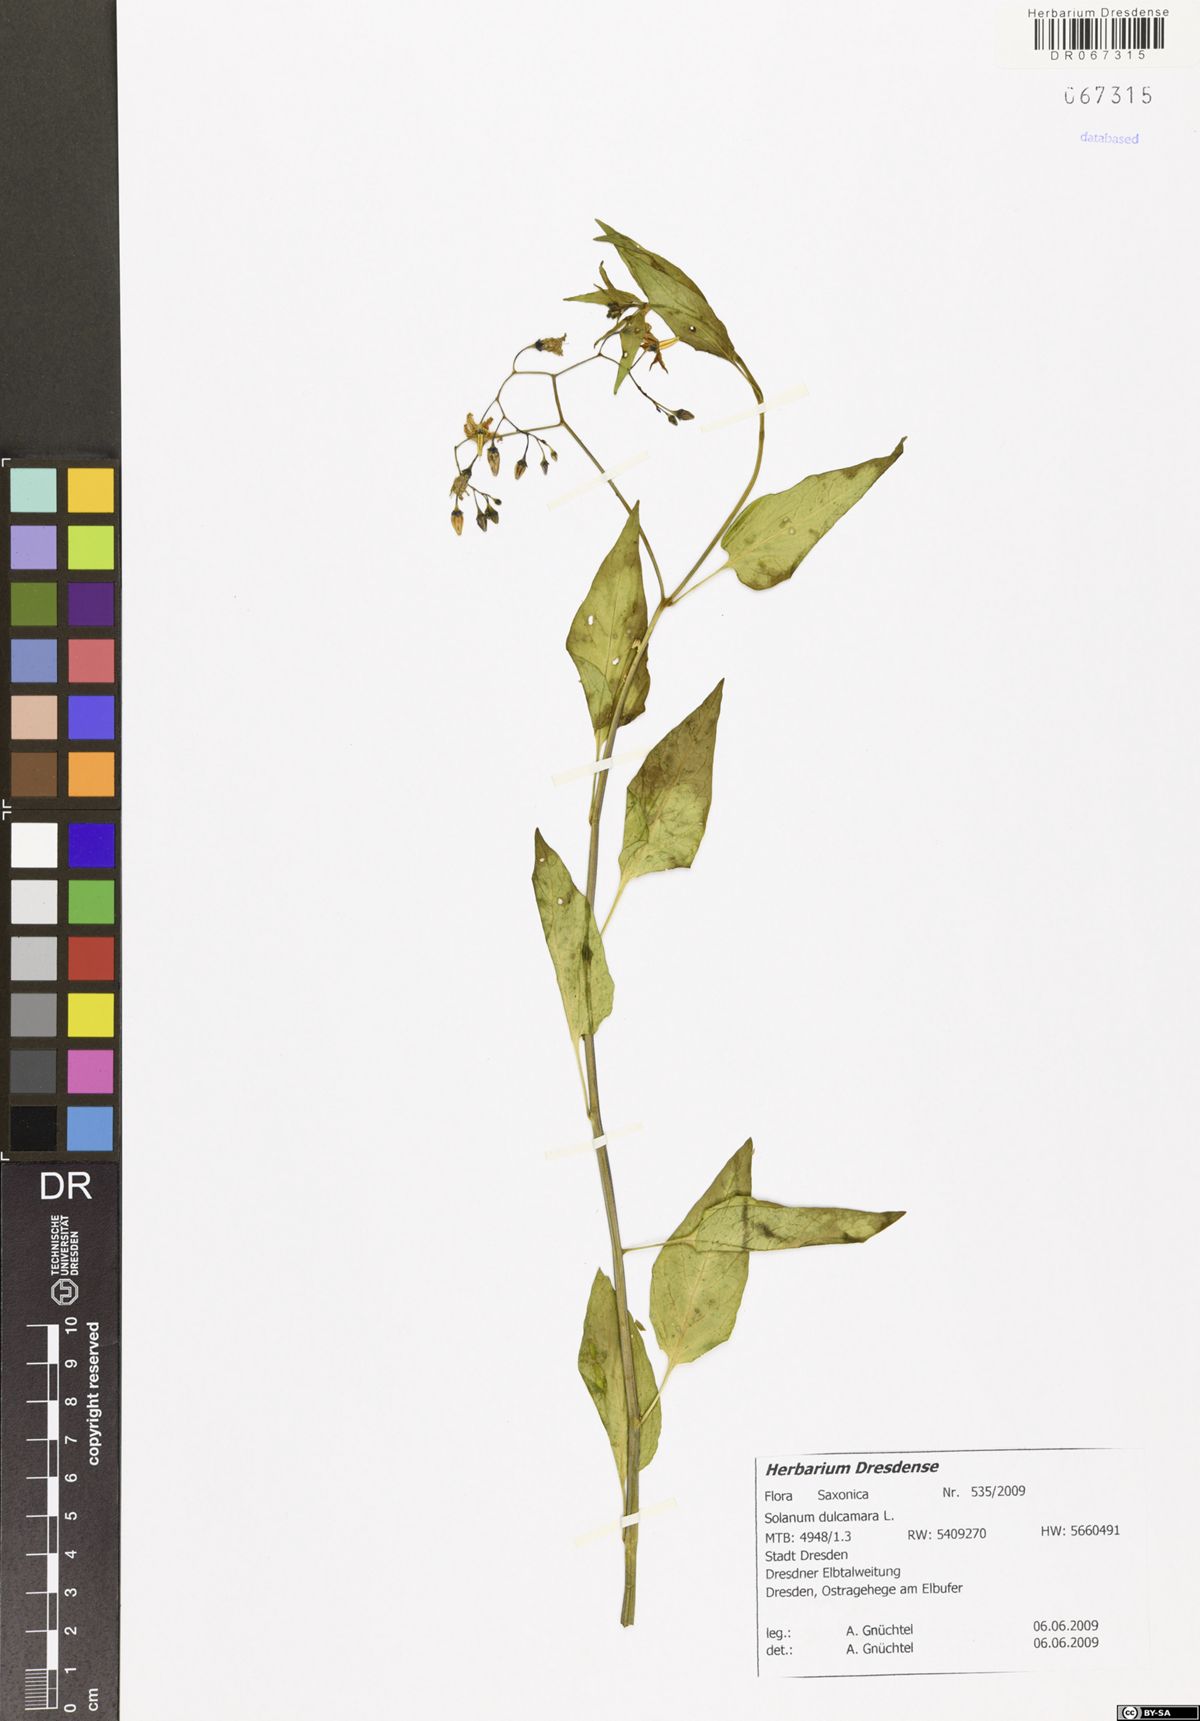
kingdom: Plantae
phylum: Tracheophyta
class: Magnoliopsida
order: Solanales
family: Solanaceae
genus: Solanum
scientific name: Solanum dulcamara
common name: Climbing nightshade
